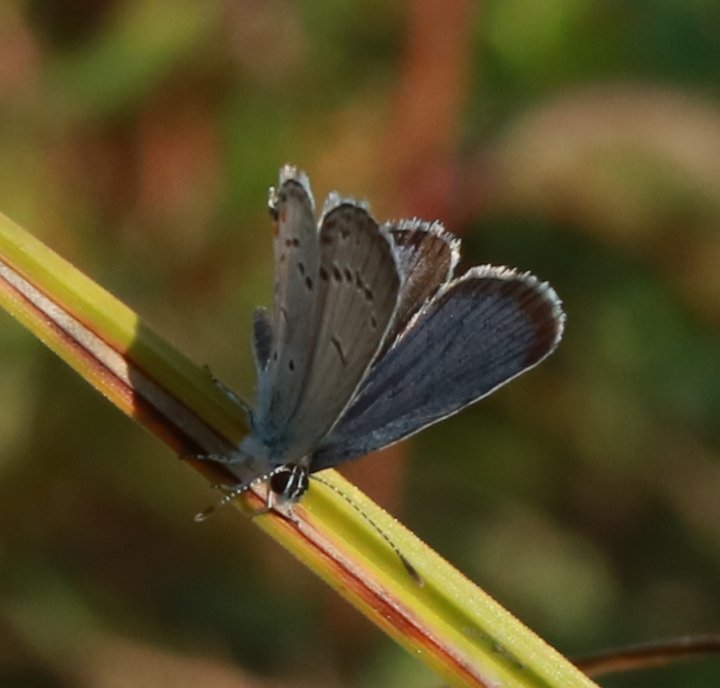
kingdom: Animalia
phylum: Arthropoda
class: Insecta
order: Lepidoptera
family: Lycaenidae
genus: Elkalyce
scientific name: Elkalyce comyntas
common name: Eastern Tailed-Blue
